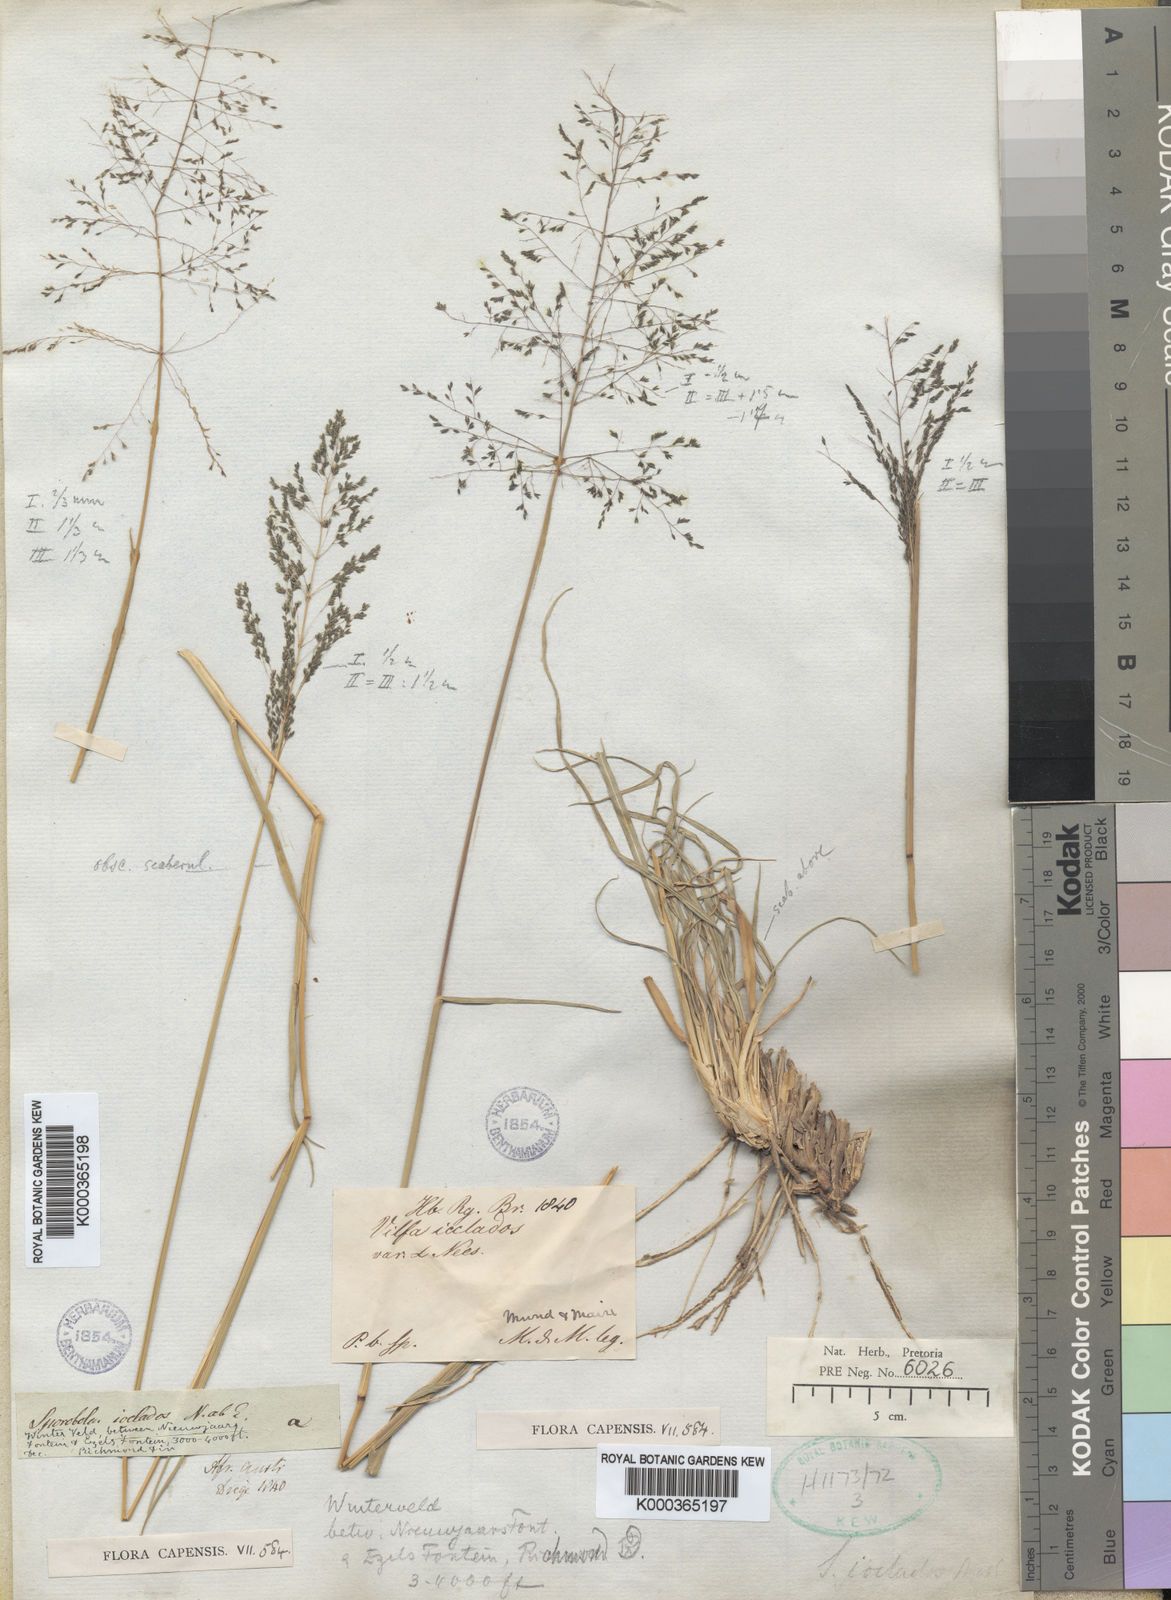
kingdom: Plantae
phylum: Tracheophyta
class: Liliopsida
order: Poales
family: Poaceae
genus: Sporobolus
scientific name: Sporobolus ioclados
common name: Pan dropseed
